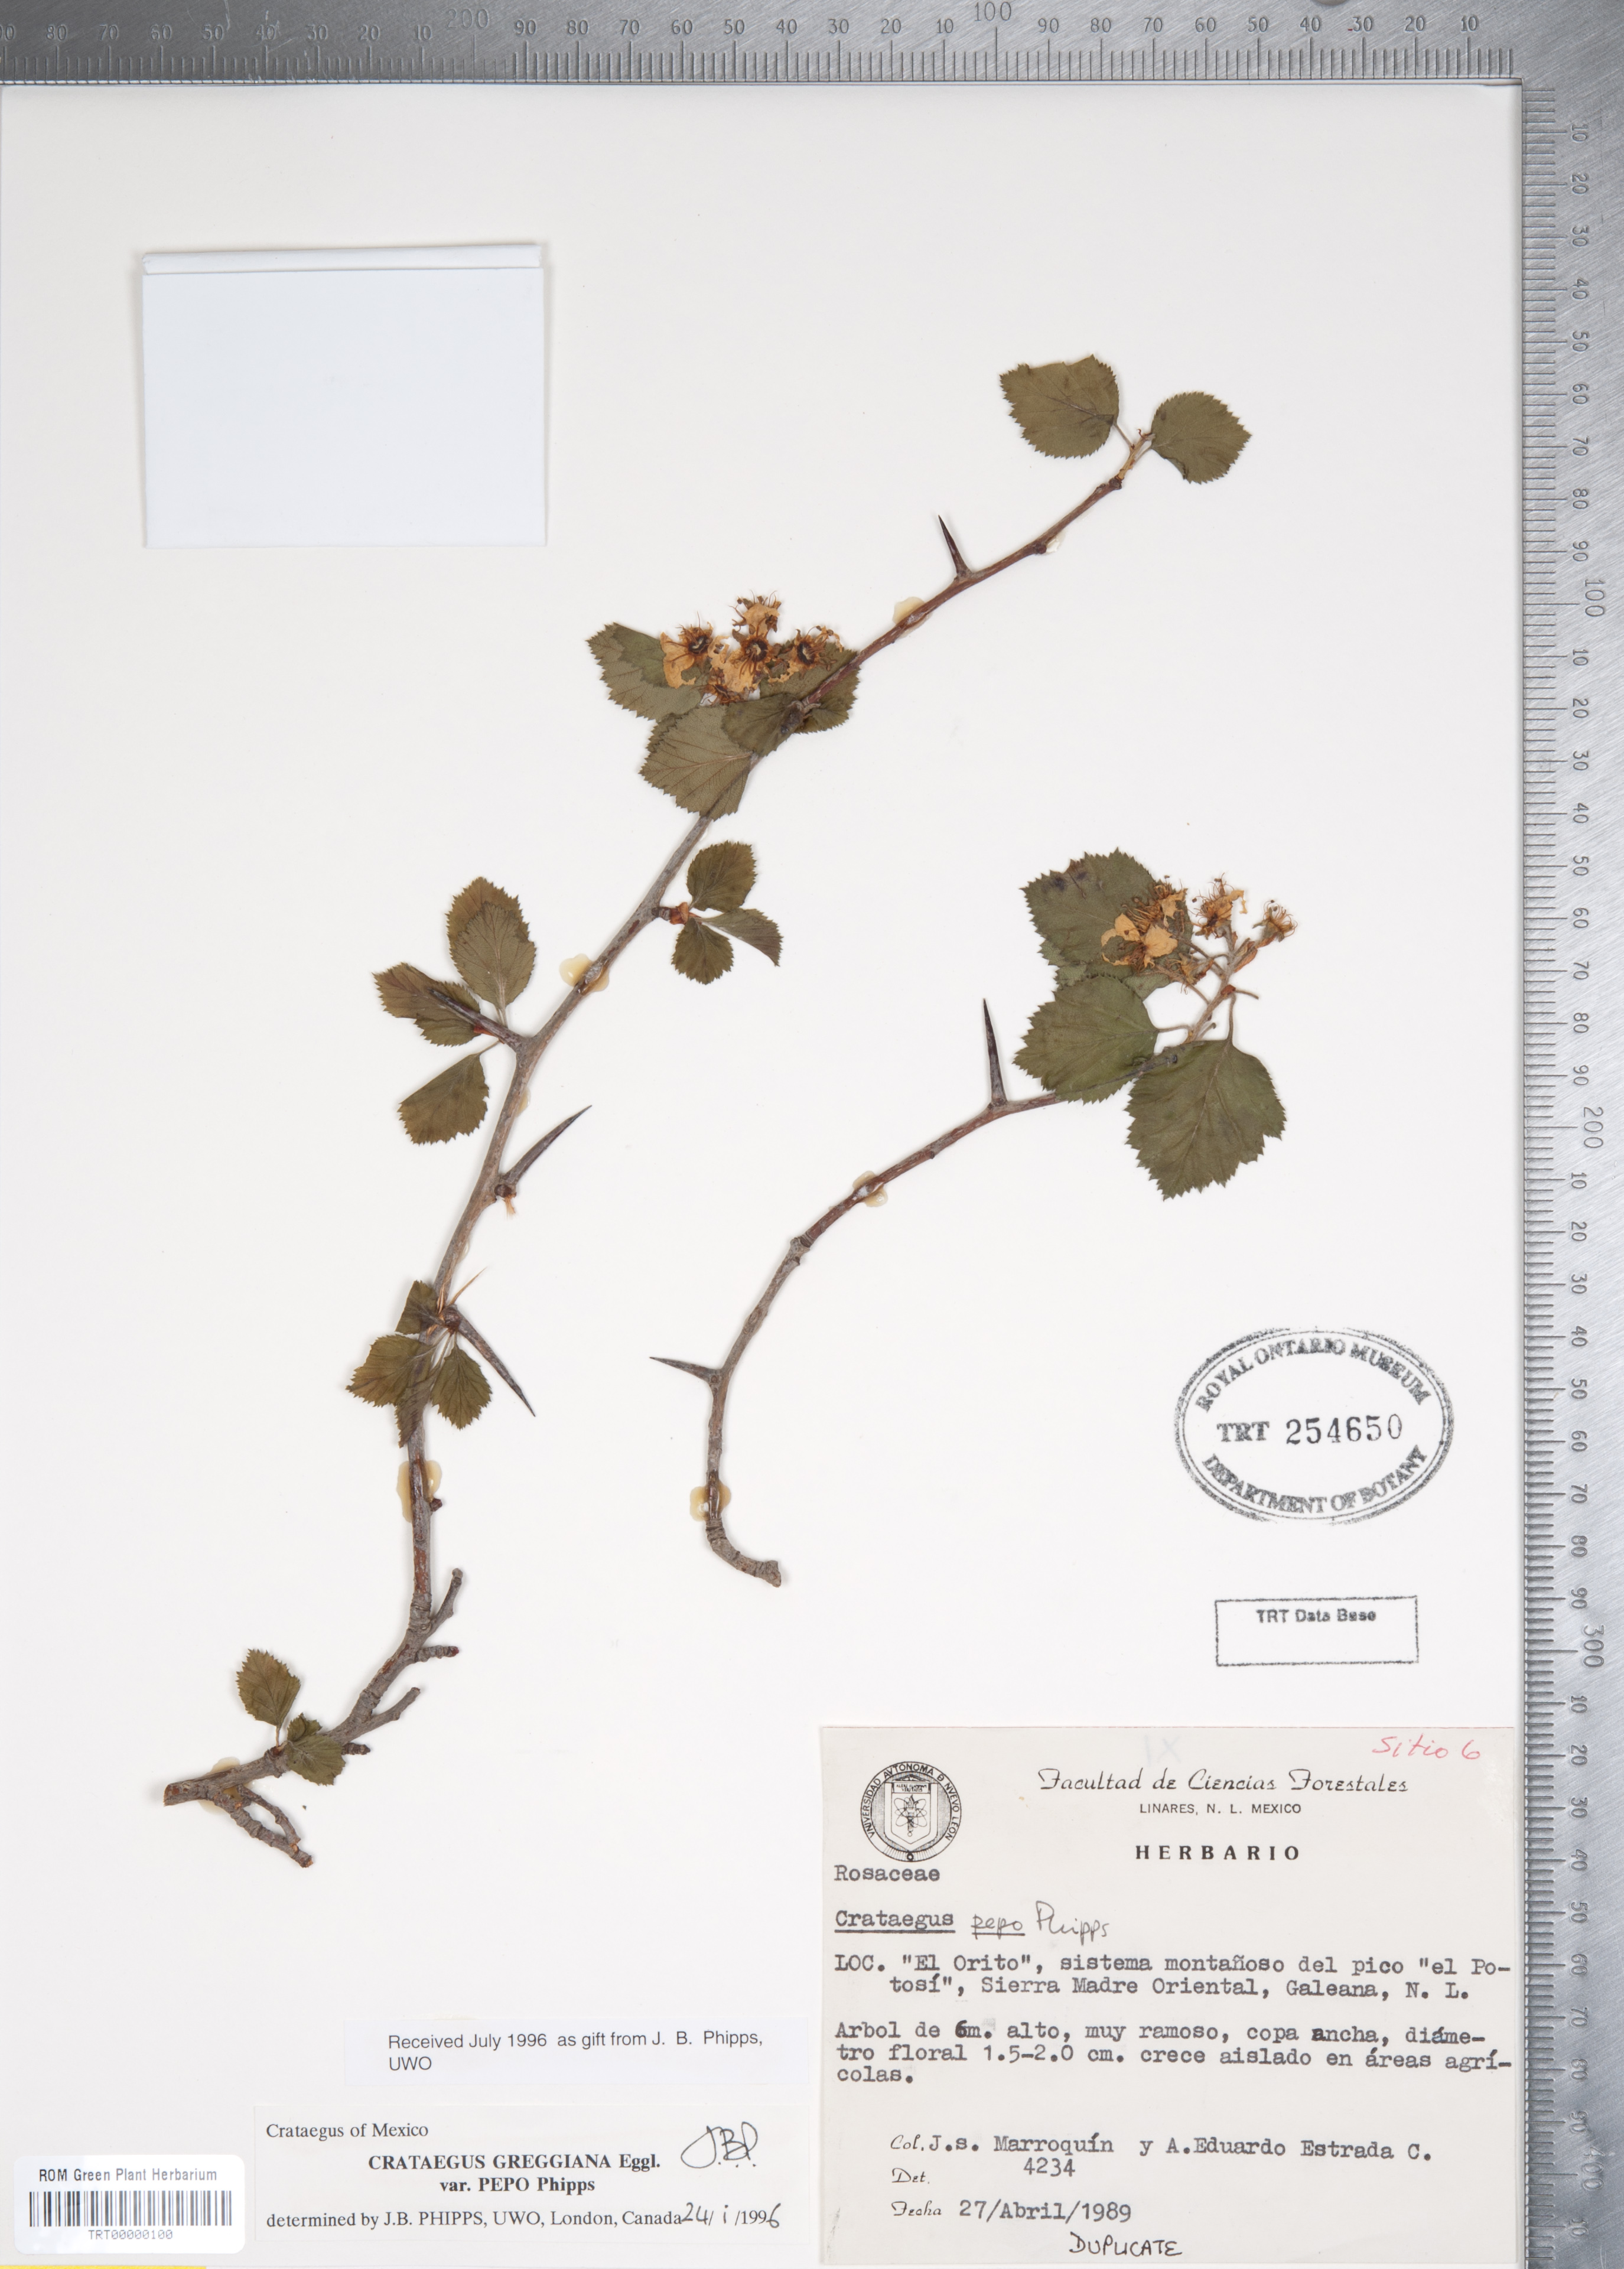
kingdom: Plantae
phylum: Tracheophyta
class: Magnoliopsida
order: Rosales
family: Rosaceae
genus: Crataegus
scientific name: Crataegus greggiana
